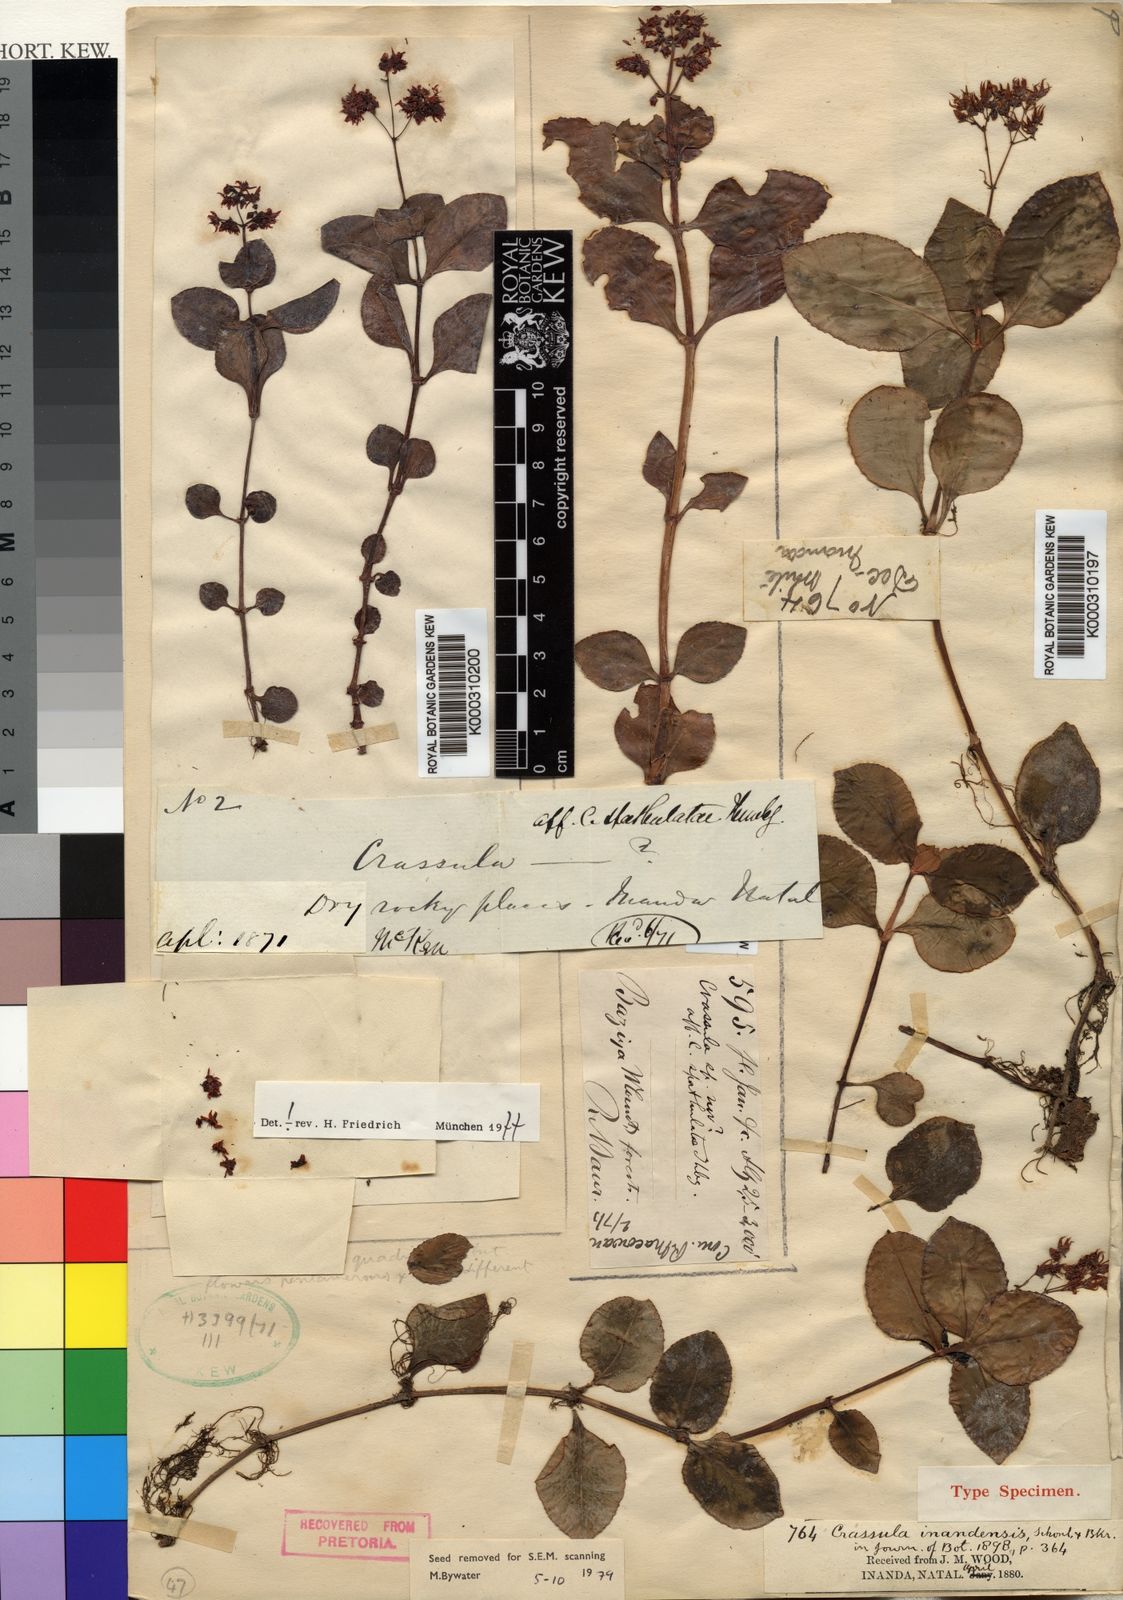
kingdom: Plantae
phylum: Tracheophyta
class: Magnoliopsida
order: Saxifragales
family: Crassulaceae
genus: Crassula
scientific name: Crassula
